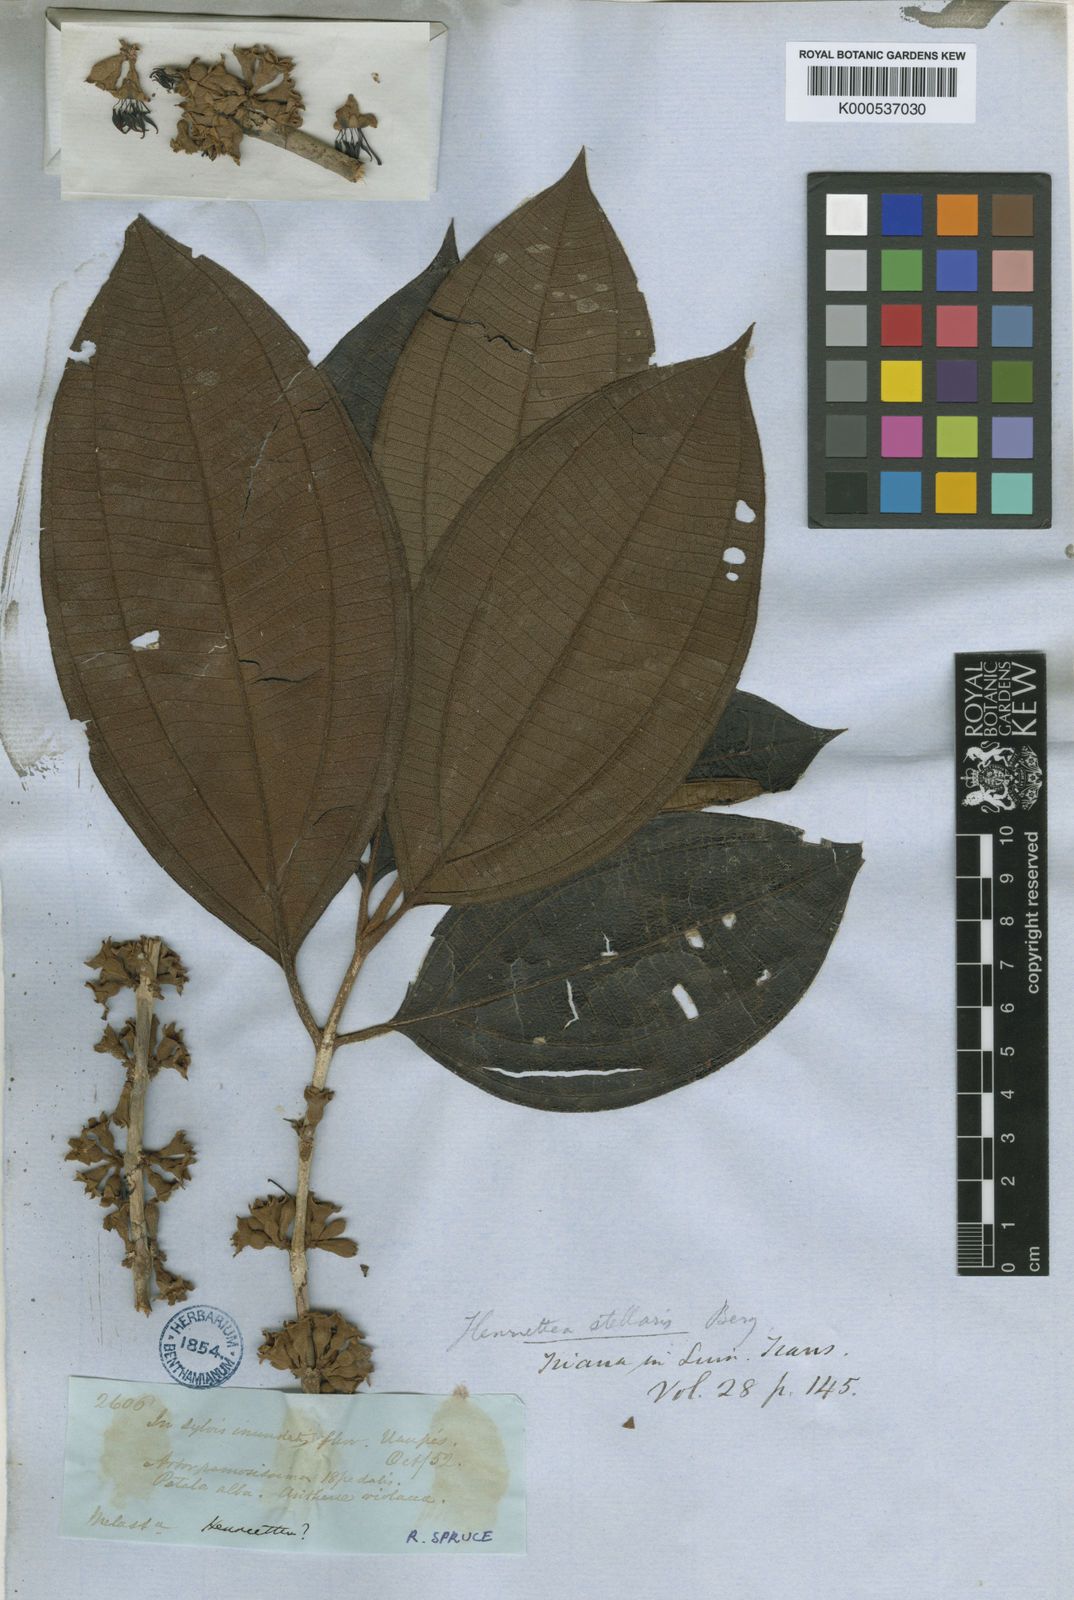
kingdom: Plantae
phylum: Tracheophyta
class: Magnoliopsida
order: Myrtales
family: Melastomataceae
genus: Henriettea
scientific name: Henriettea stellaris
